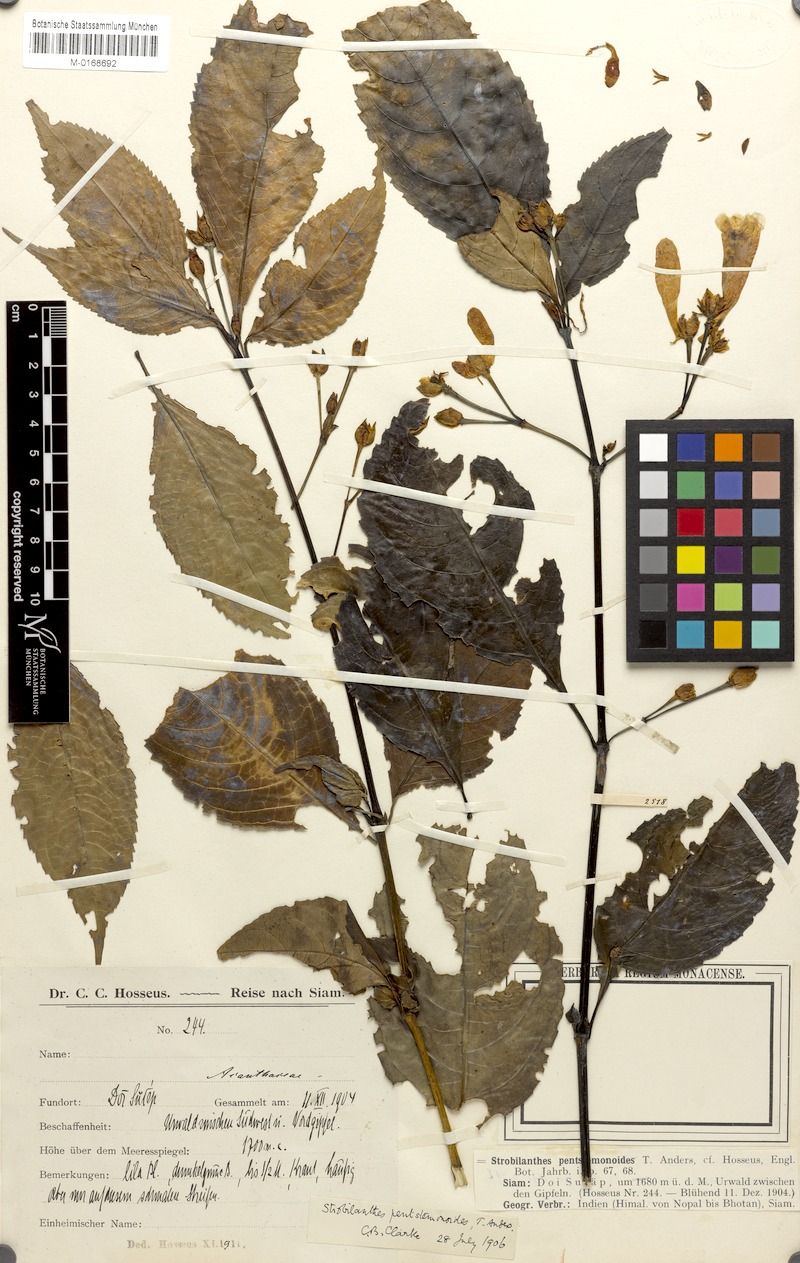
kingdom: Plantae
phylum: Tracheophyta
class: Magnoliopsida
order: Lamiales
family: Acanthaceae
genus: Strobilanthes
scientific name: Strobilanthes penstemonoides
